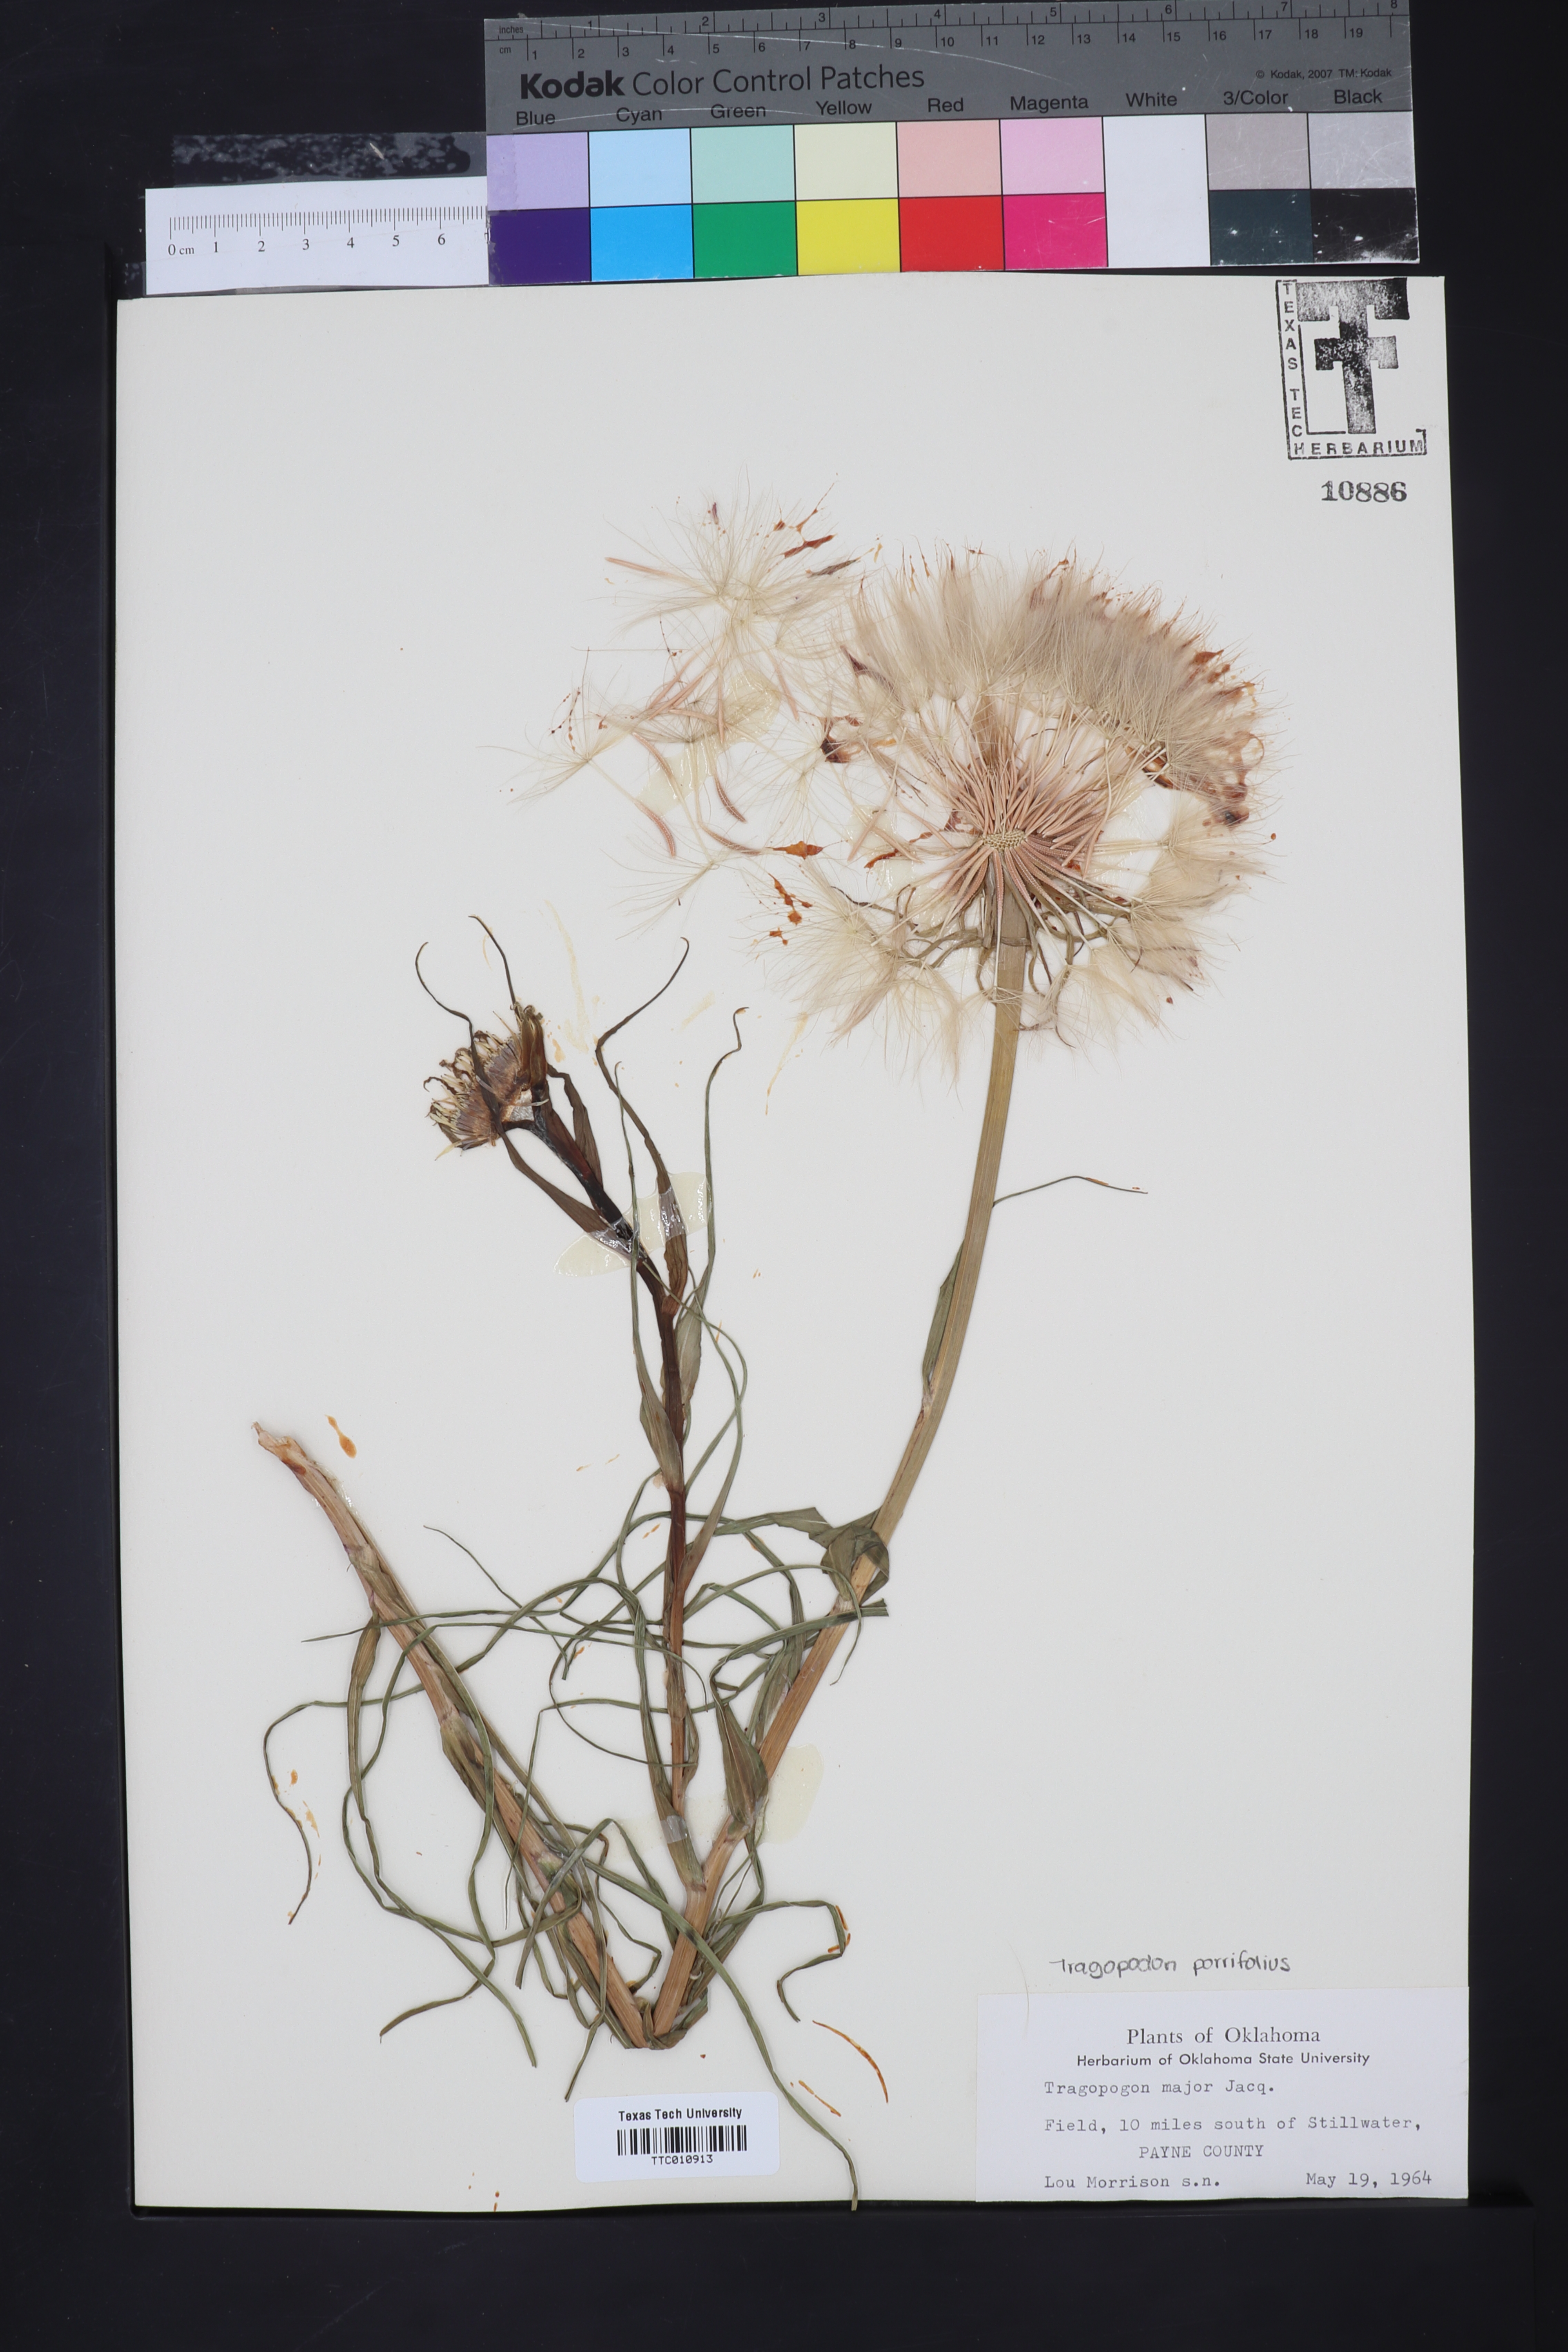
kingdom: Plantae
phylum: Tracheophyta
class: Magnoliopsida
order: Asterales
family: Asteraceae
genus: Tragopogon
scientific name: Tragopogon dubius
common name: Yellow salsify
